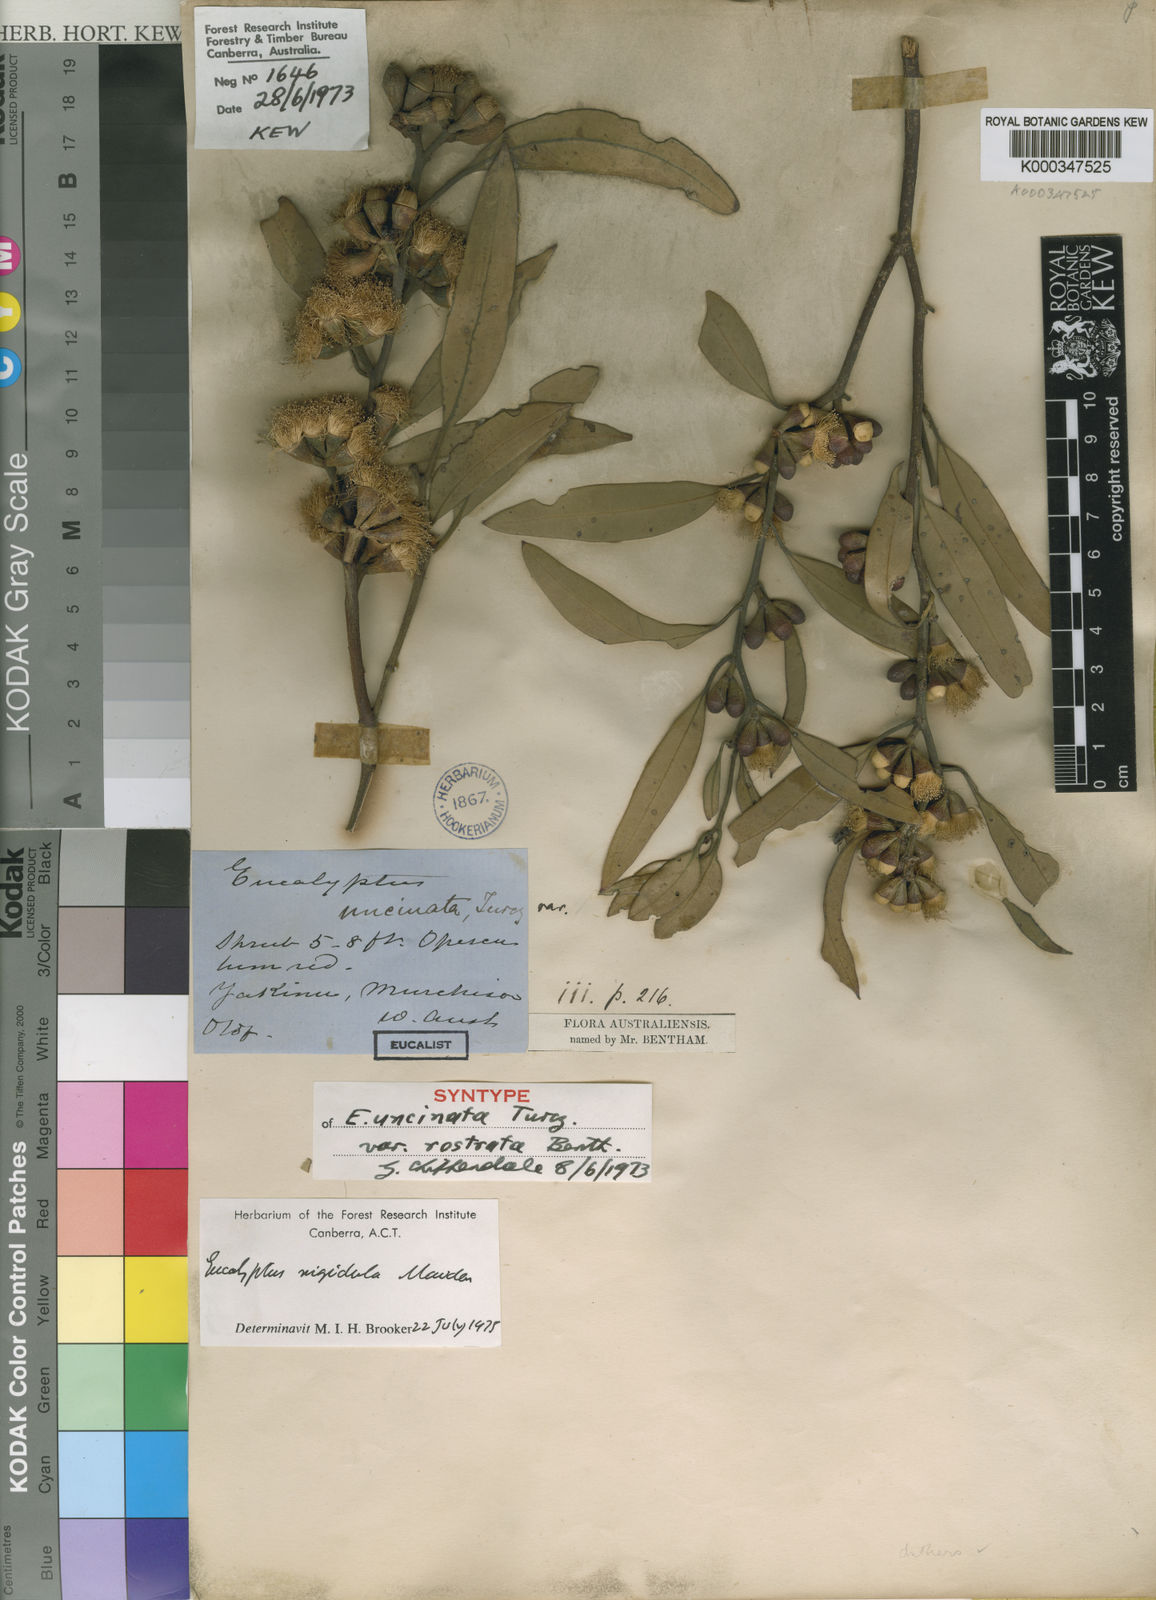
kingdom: Plantae
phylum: Tracheophyta
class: Magnoliopsida
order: Myrtales
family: Myrtaceae
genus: Eucalyptus
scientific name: Eucalyptus
